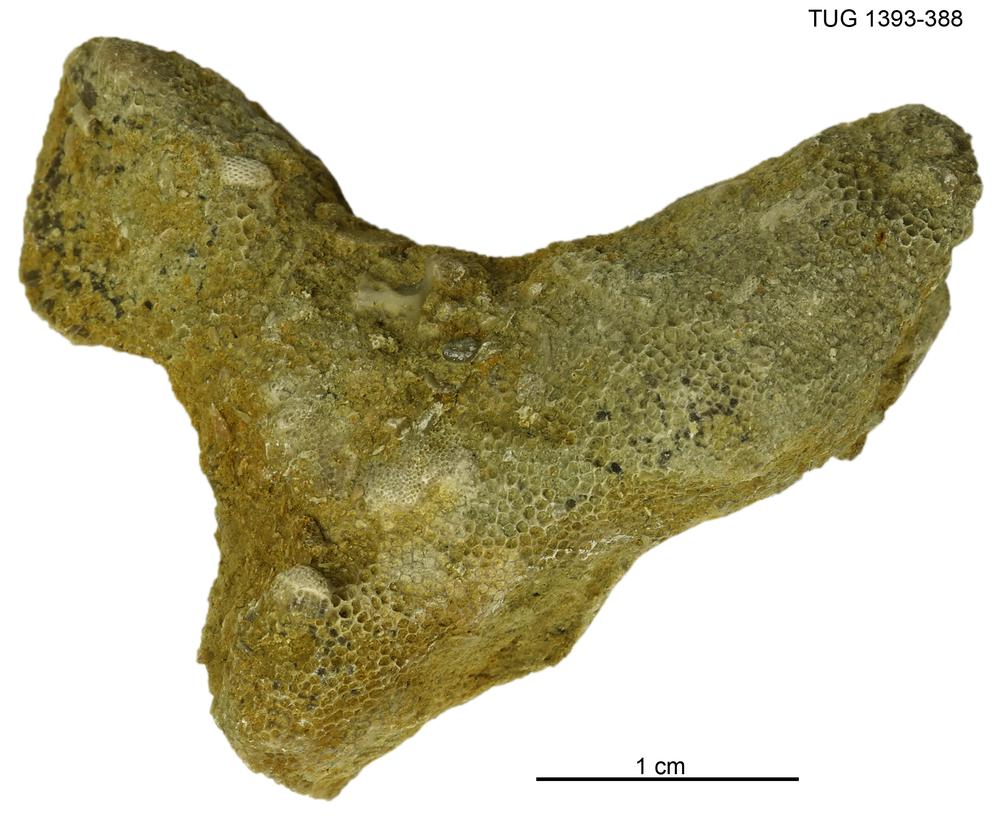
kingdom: Animalia
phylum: Bryozoa
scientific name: Bryozoa
